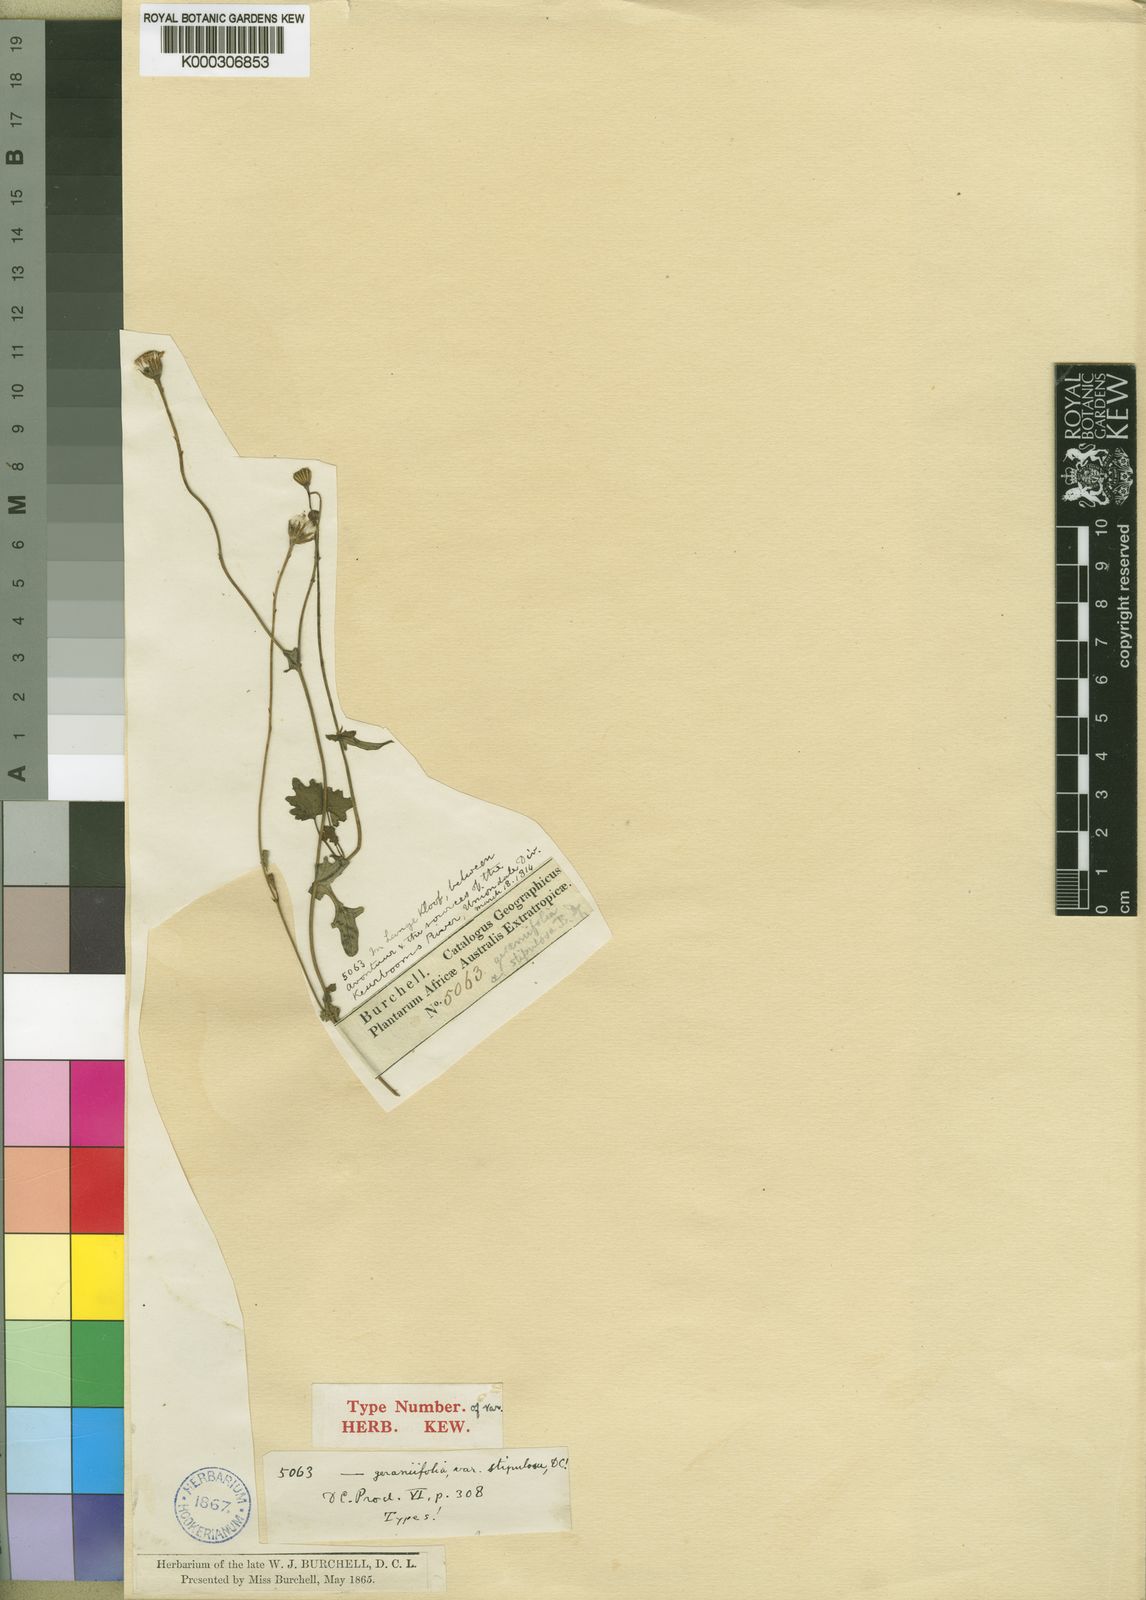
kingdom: Plantae
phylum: Tracheophyta
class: Magnoliopsida
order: Asterales
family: Asteraceae
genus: Cineraria
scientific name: Cineraria geraniifolia
